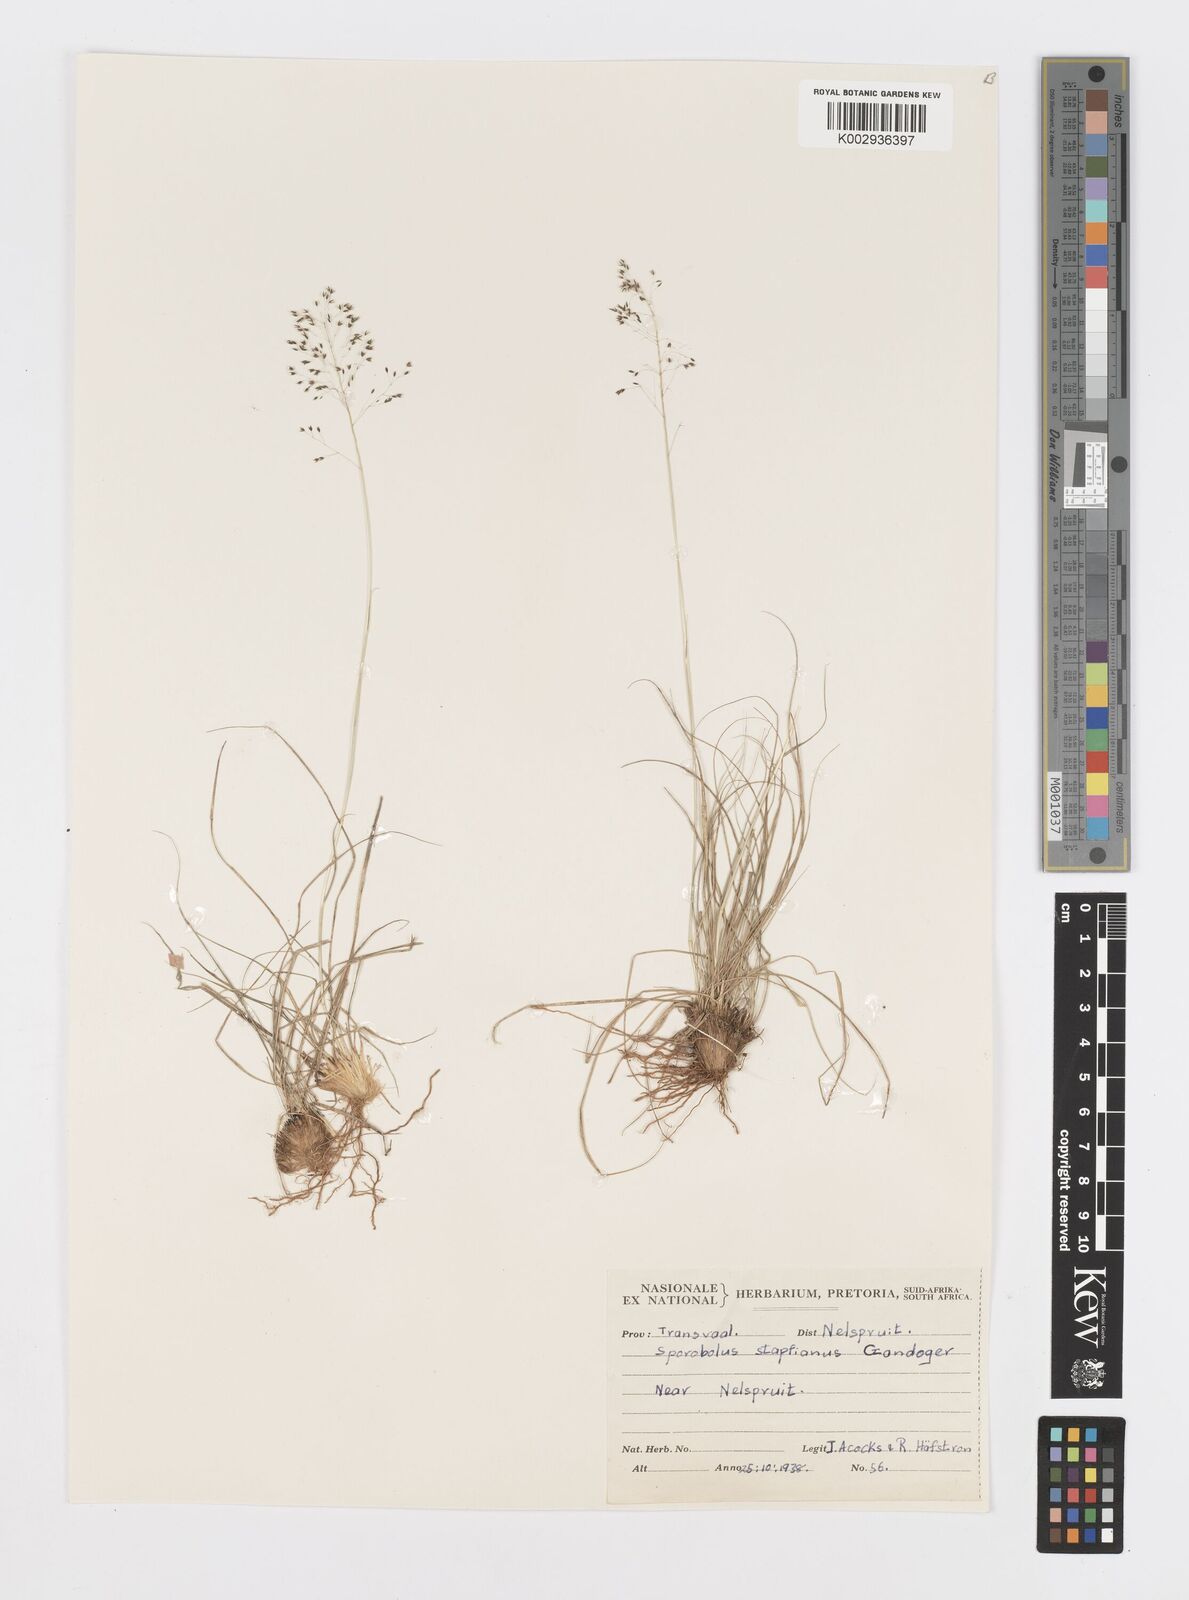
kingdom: Plantae
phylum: Tracheophyta
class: Liliopsida
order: Poales
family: Poaceae
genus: Sporobolus
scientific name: Sporobolus stapfianus
